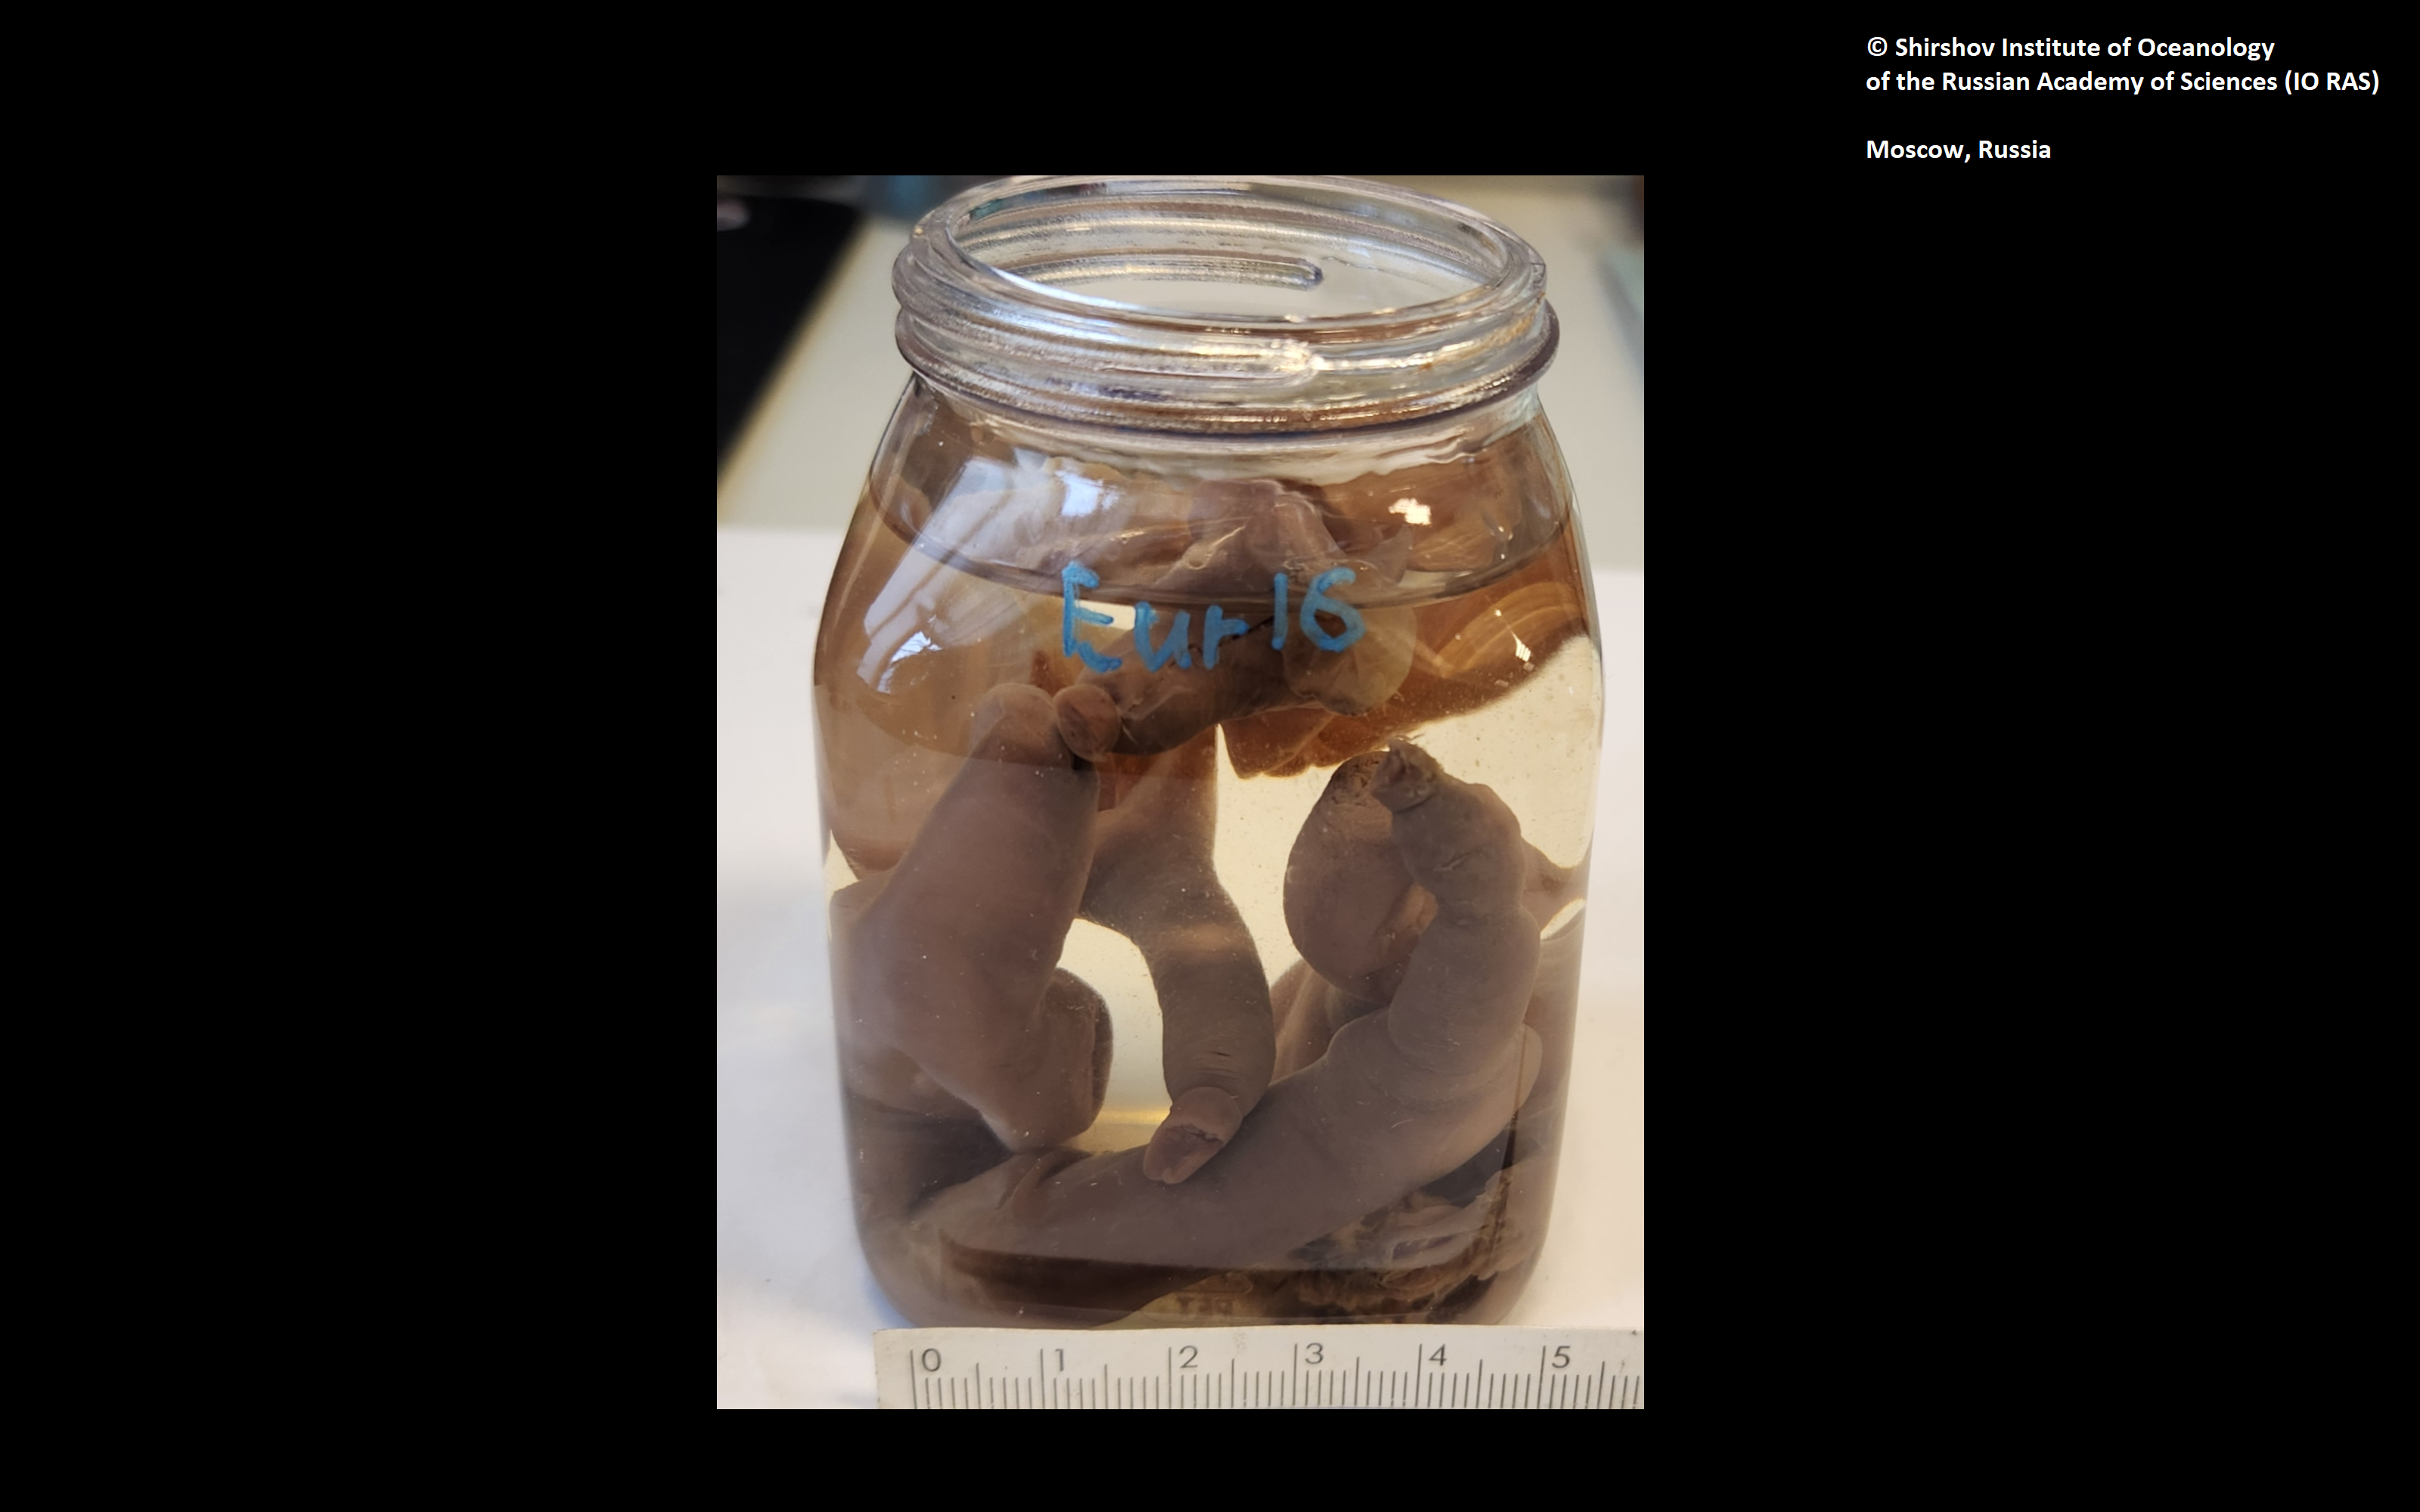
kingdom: Animalia
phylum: Annelida
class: Polychaeta
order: Echiuroidea
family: Bonelliidae
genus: Bonellia
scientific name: Bonellia pacifica
